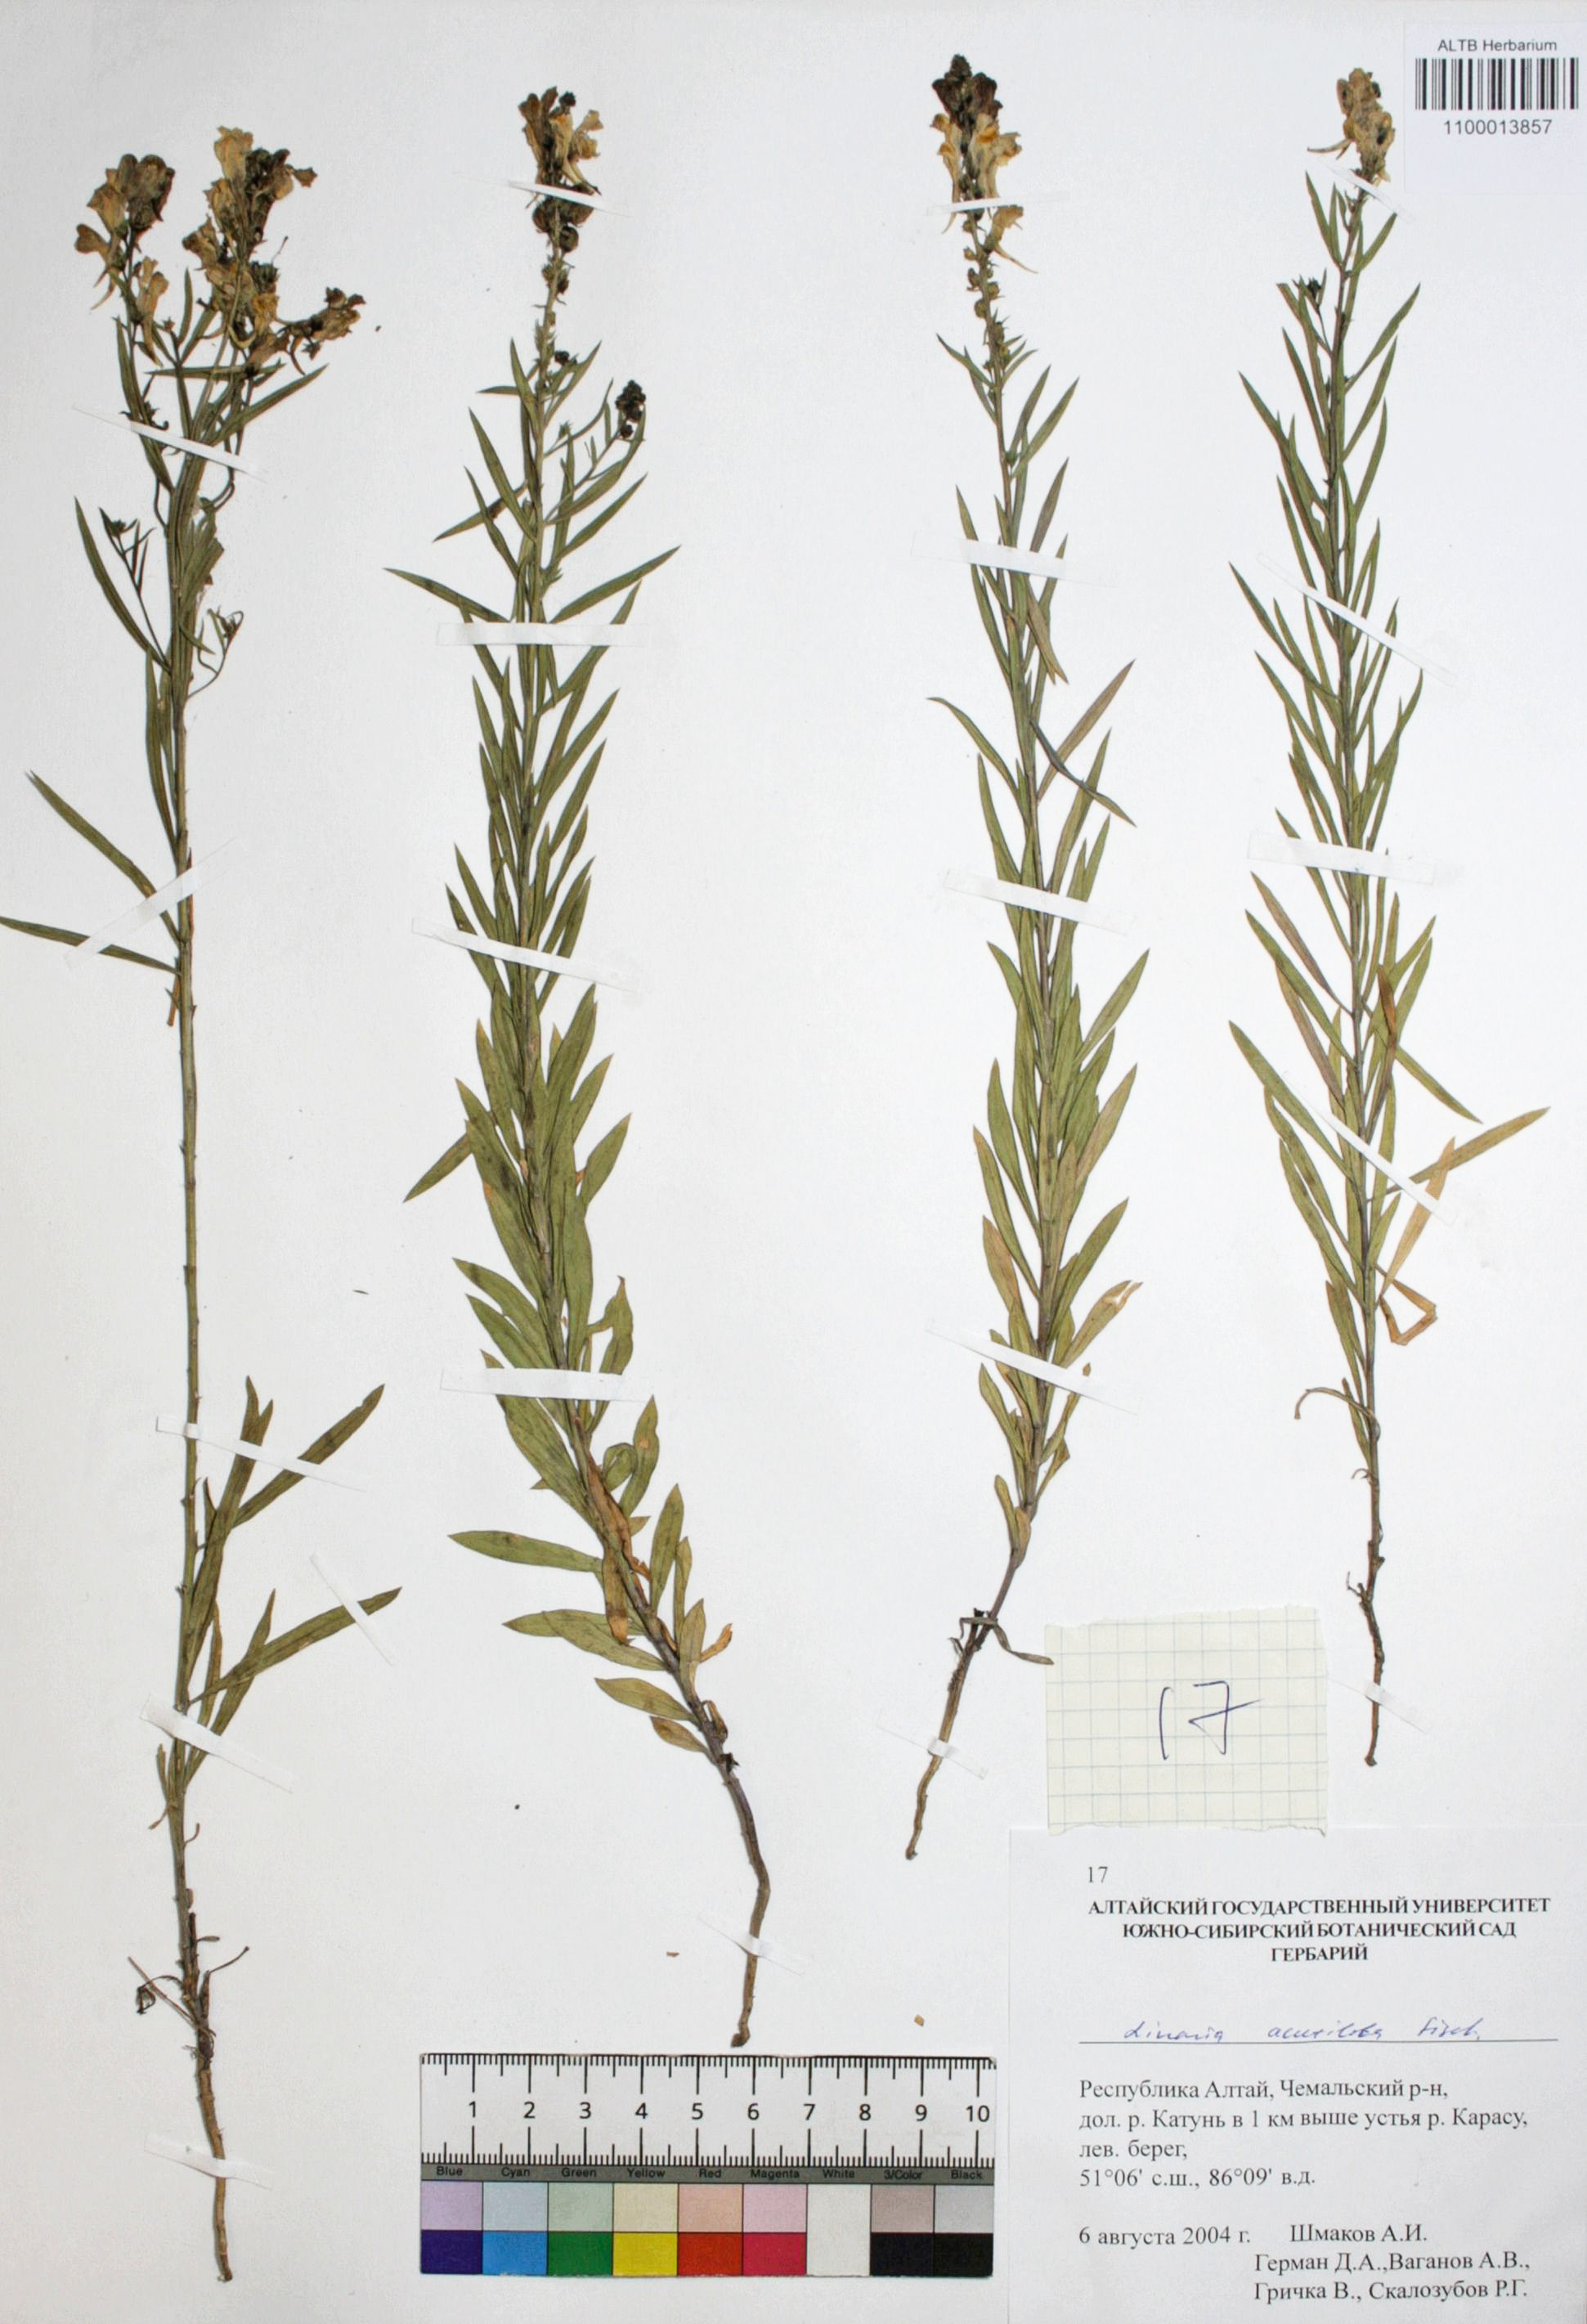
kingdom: Plantae
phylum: Tracheophyta
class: Magnoliopsida
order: Lamiales
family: Plantaginaceae
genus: Linaria
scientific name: Linaria acutiloba
